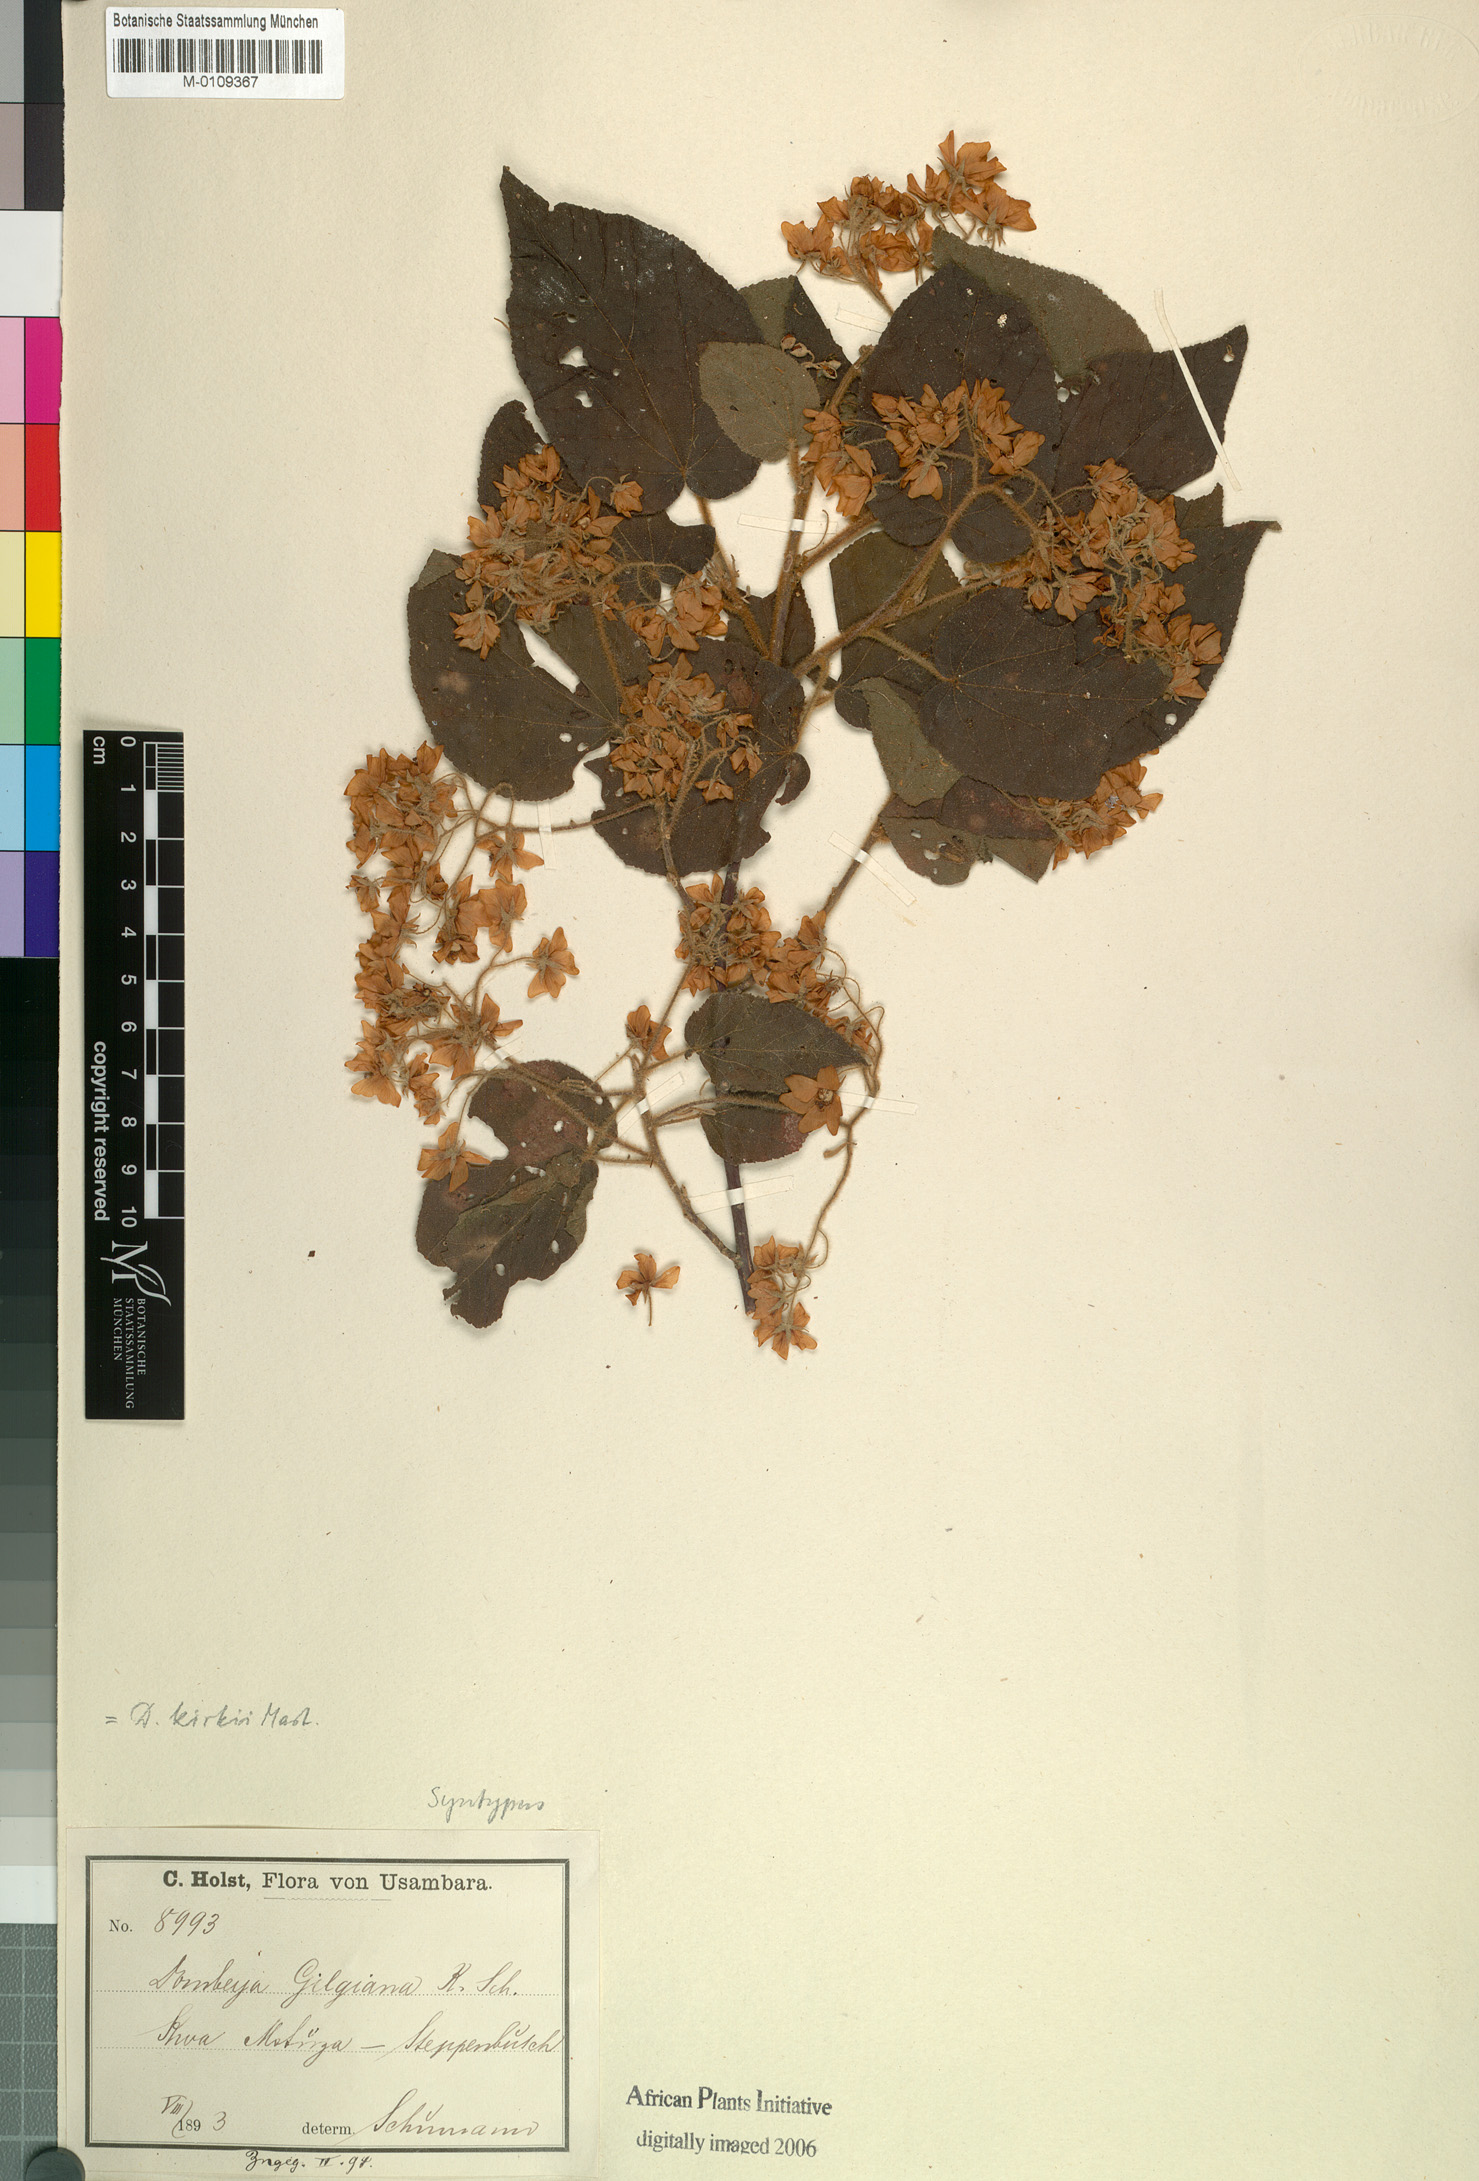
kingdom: Plantae
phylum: Tracheophyta
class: Magnoliopsida
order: Malvales
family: Malvaceae
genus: Dombeya
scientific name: Dombeya kirkii
